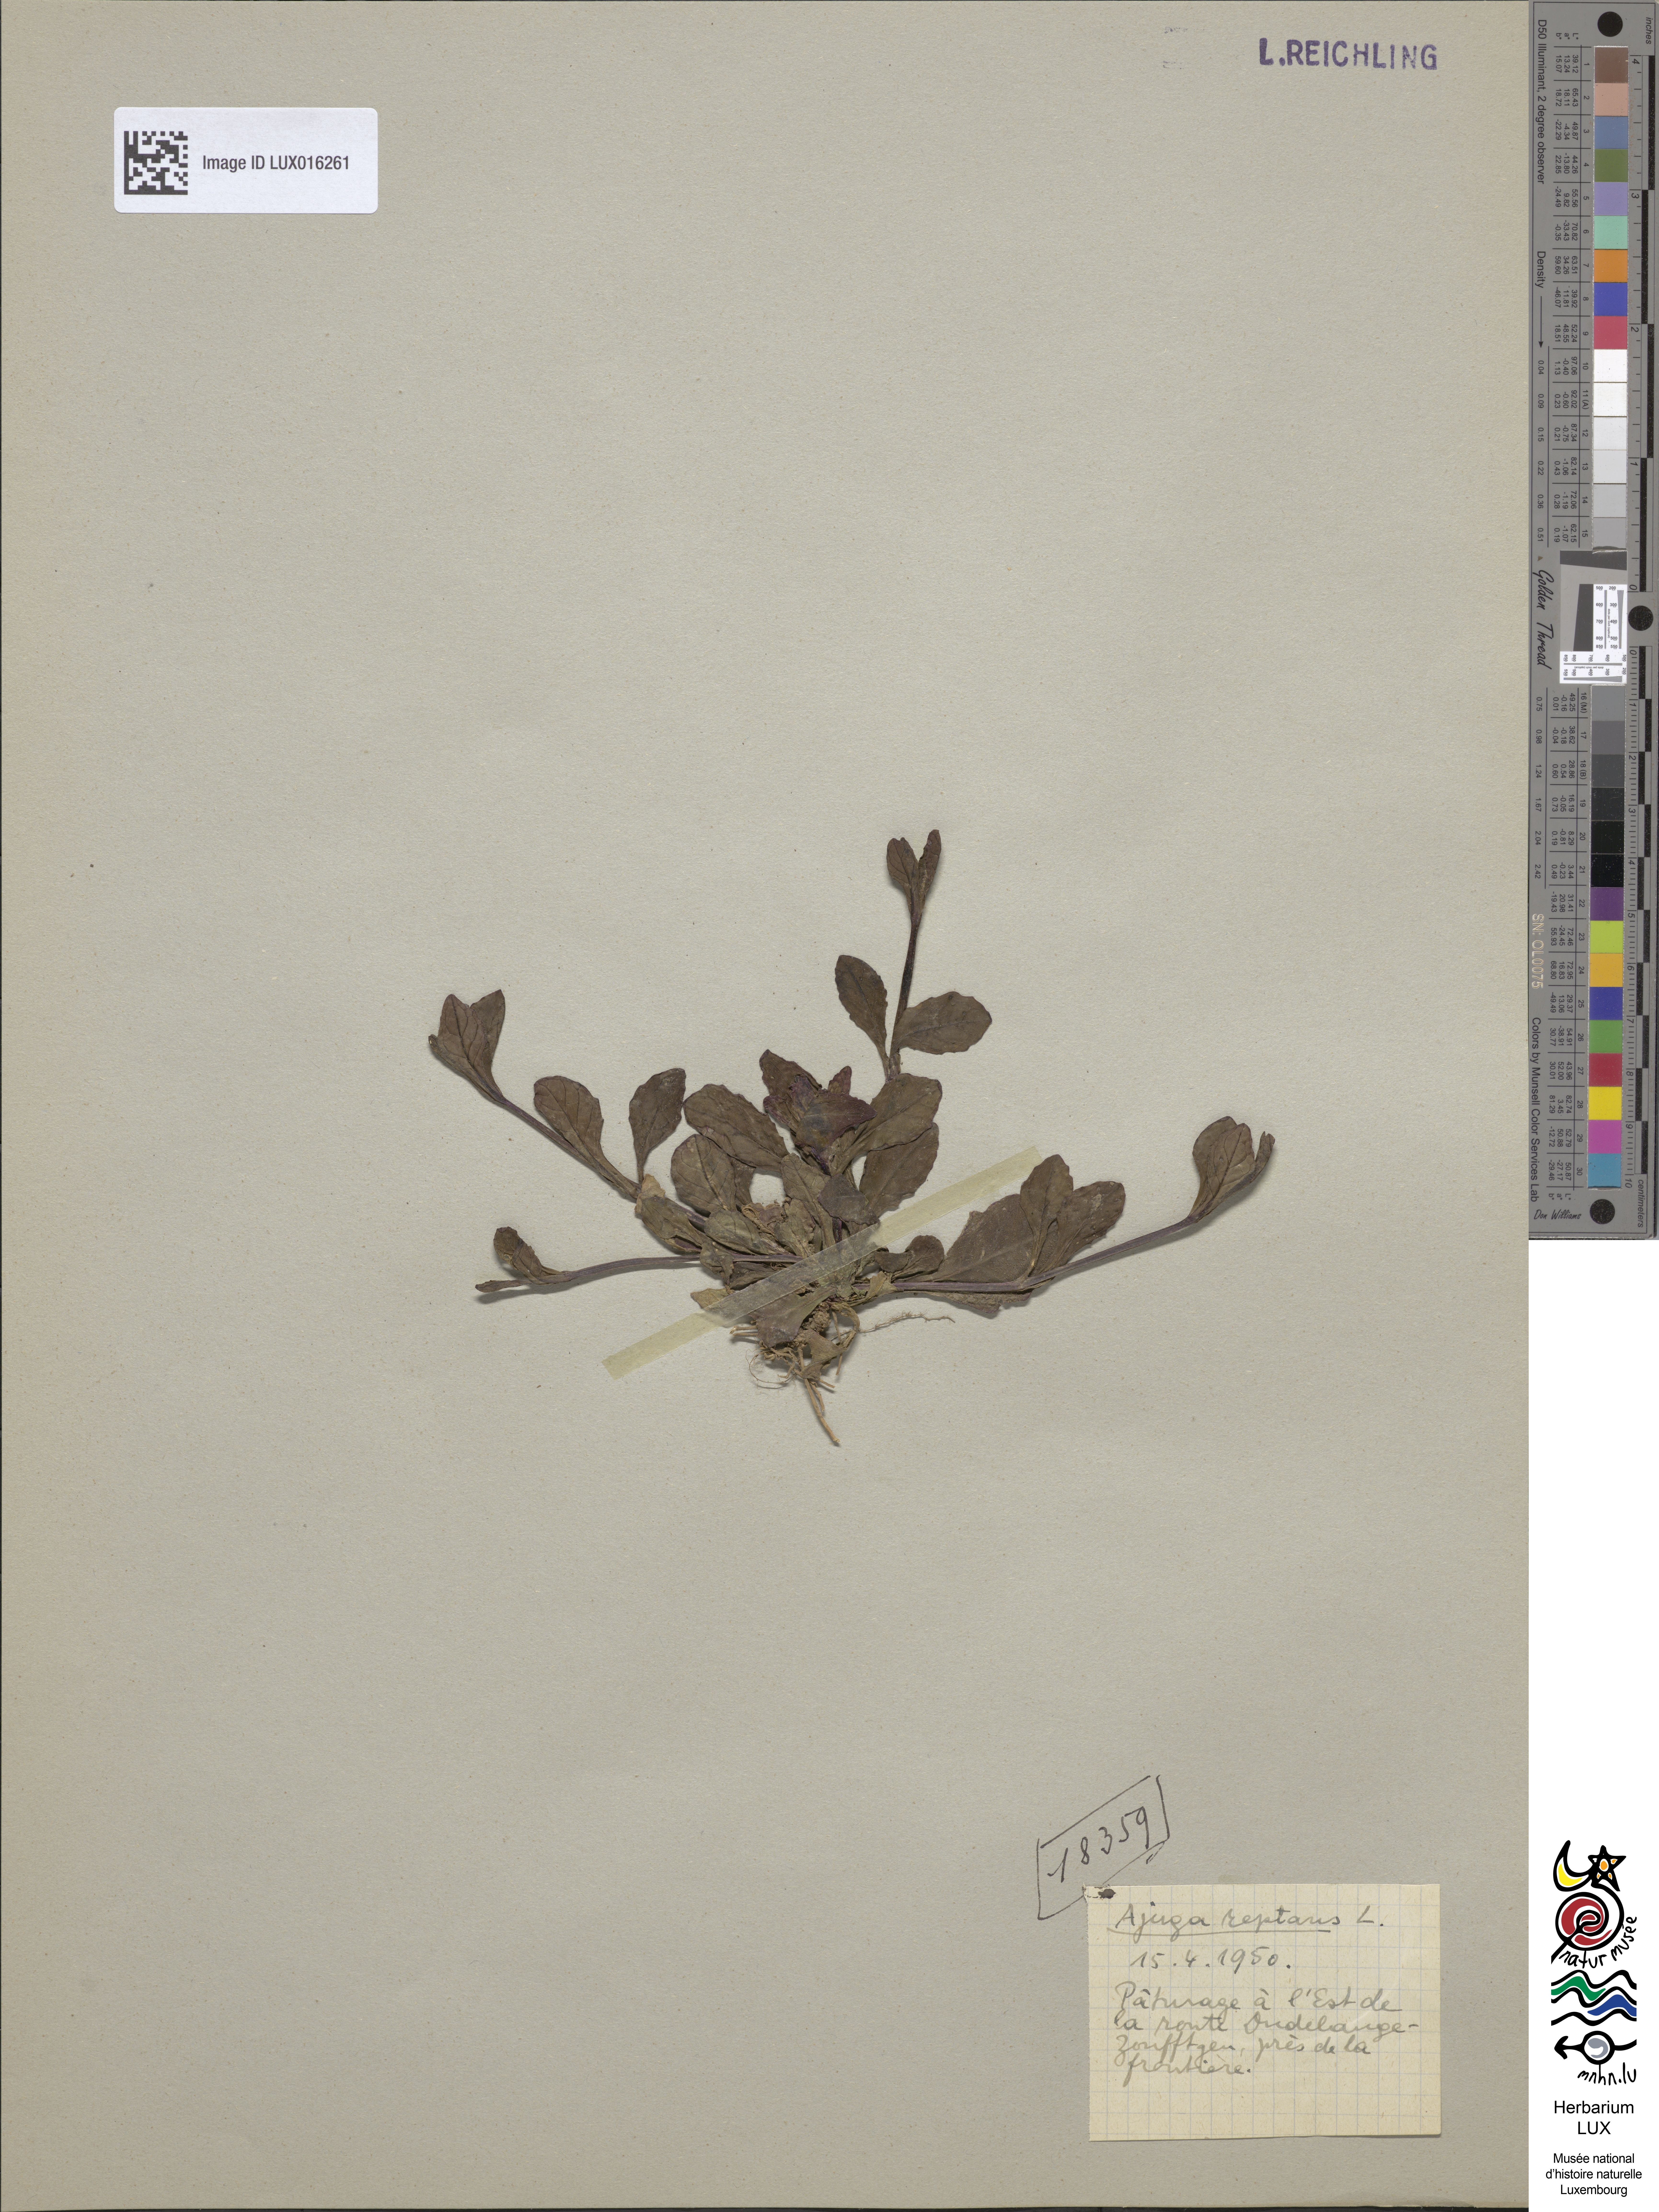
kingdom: Plantae
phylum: Tracheophyta
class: Magnoliopsida
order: Lamiales
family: Lamiaceae
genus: Ajuga
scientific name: Ajuga reptans
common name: Bugle
